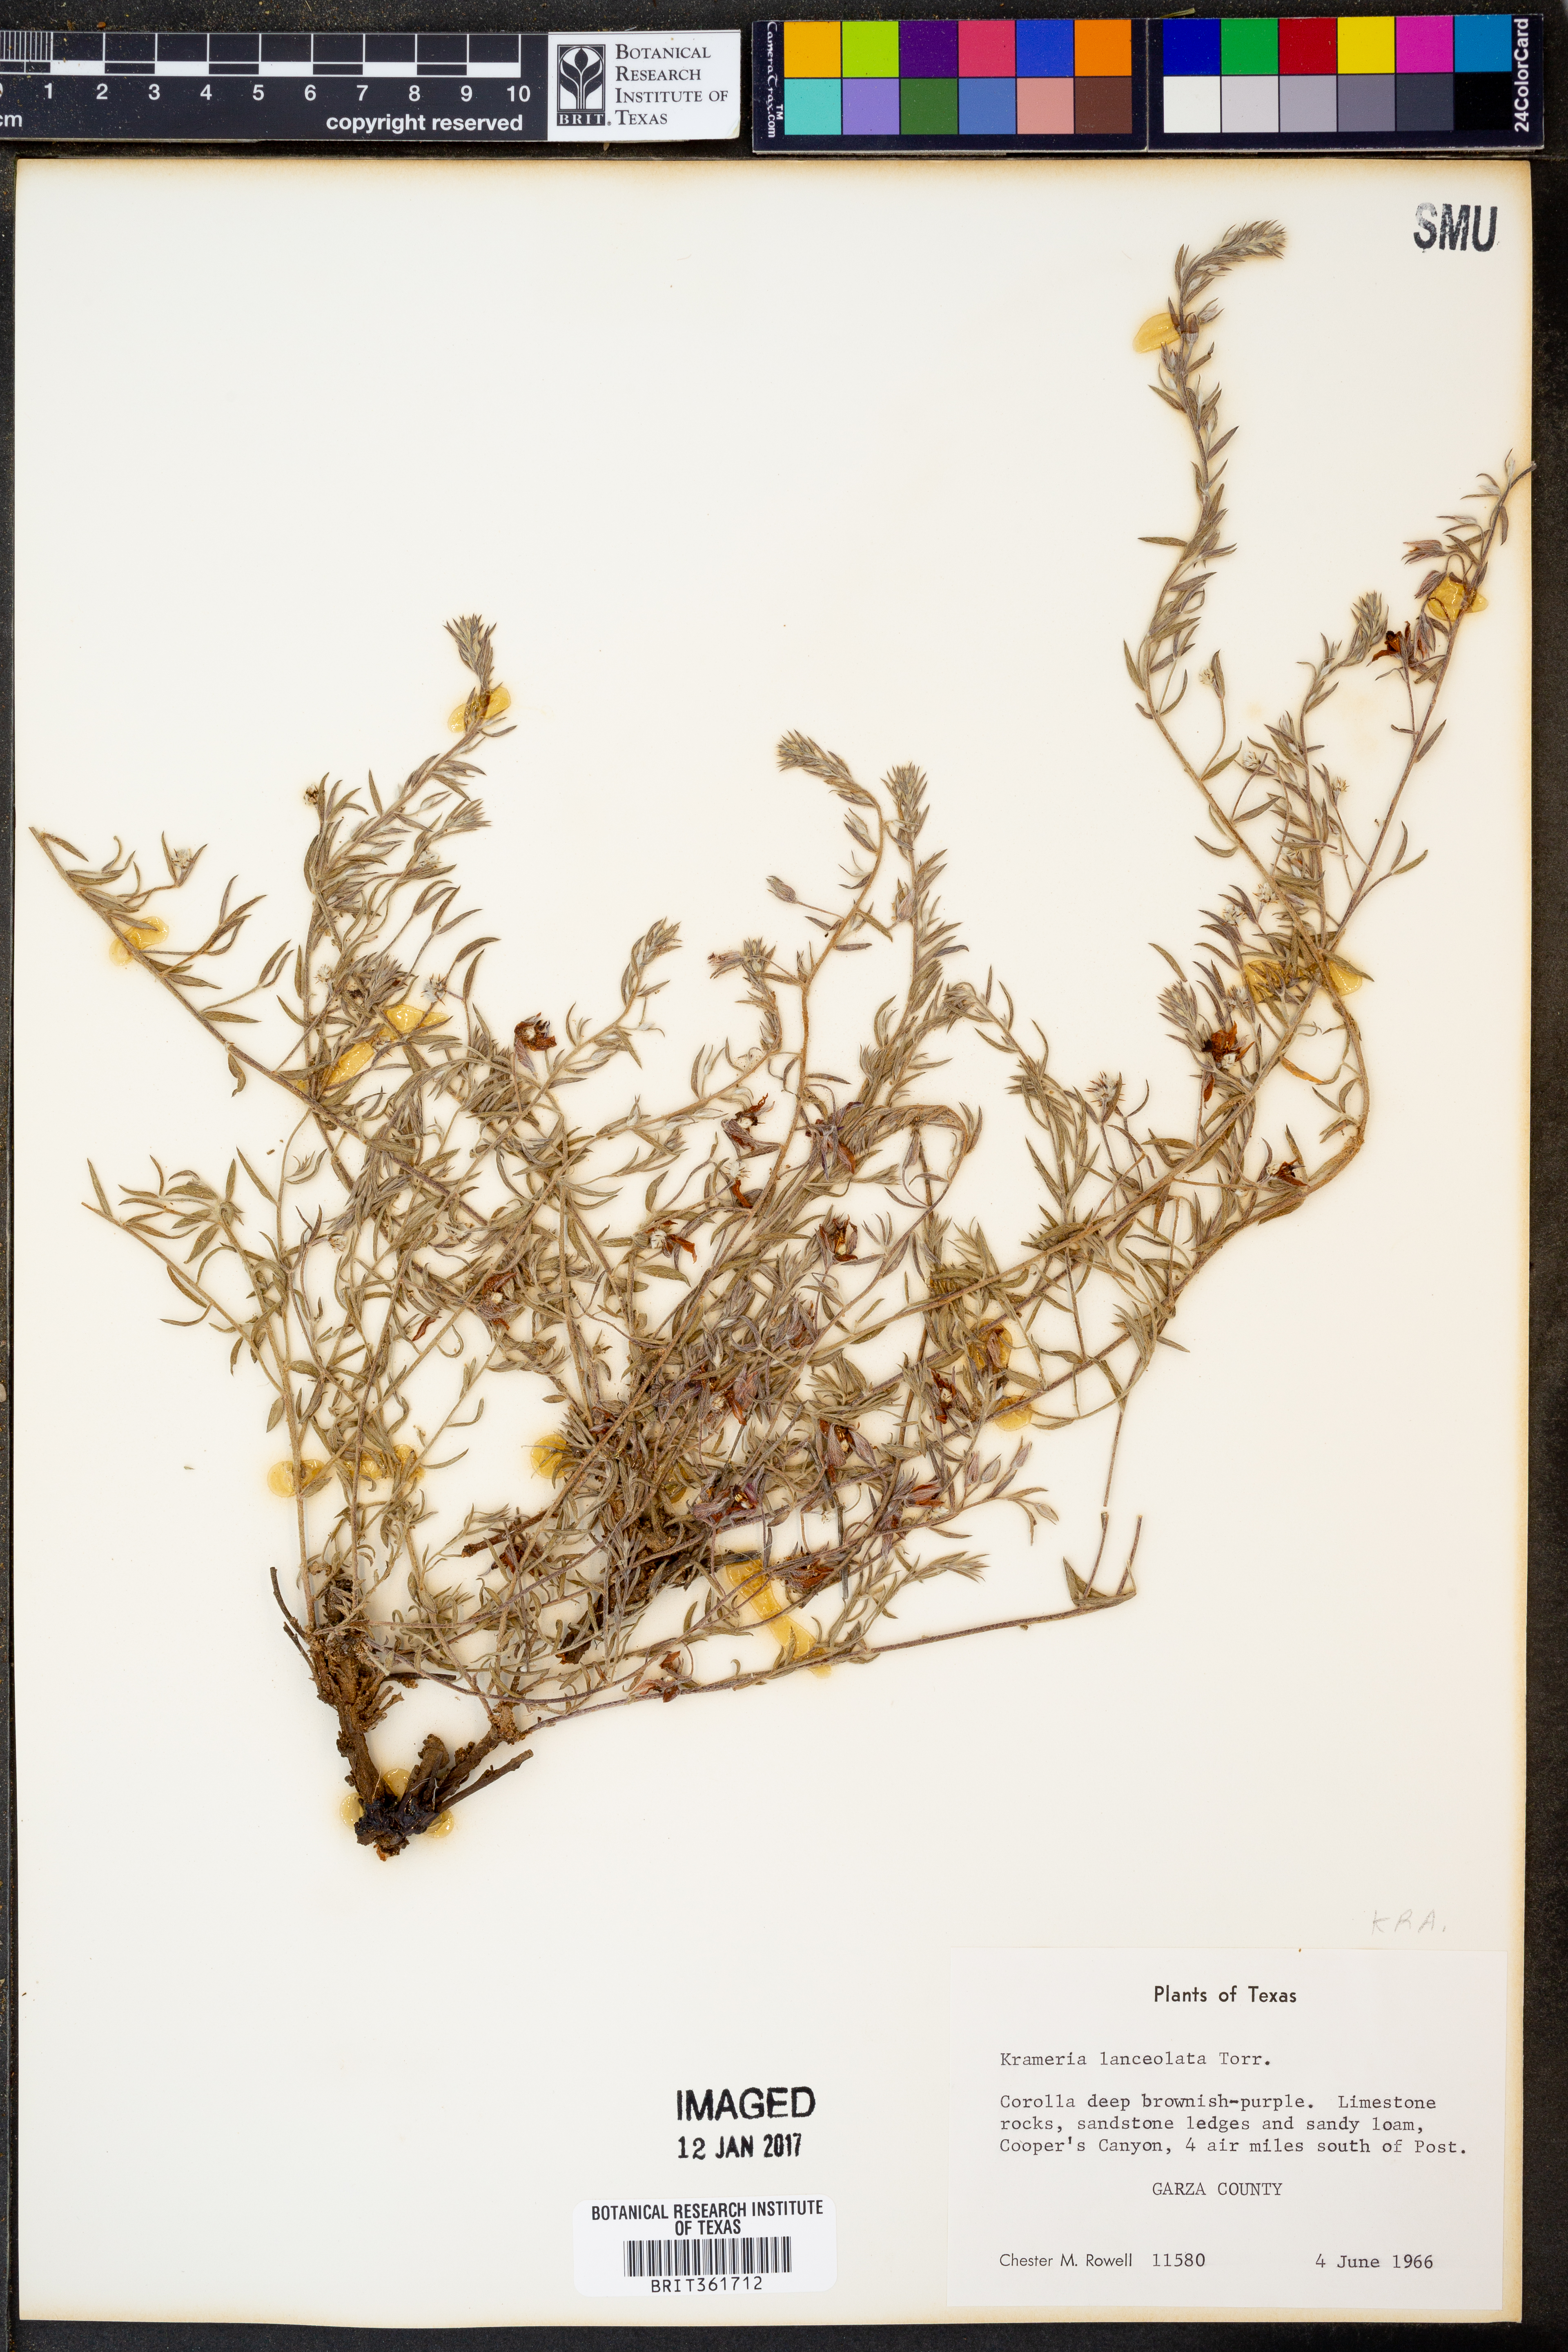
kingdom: Plantae
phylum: Tracheophyta
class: Magnoliopsida
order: Zygophyllales
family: Krameriaceae
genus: Krameria
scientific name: Krameria lanceolata
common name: Ratany
